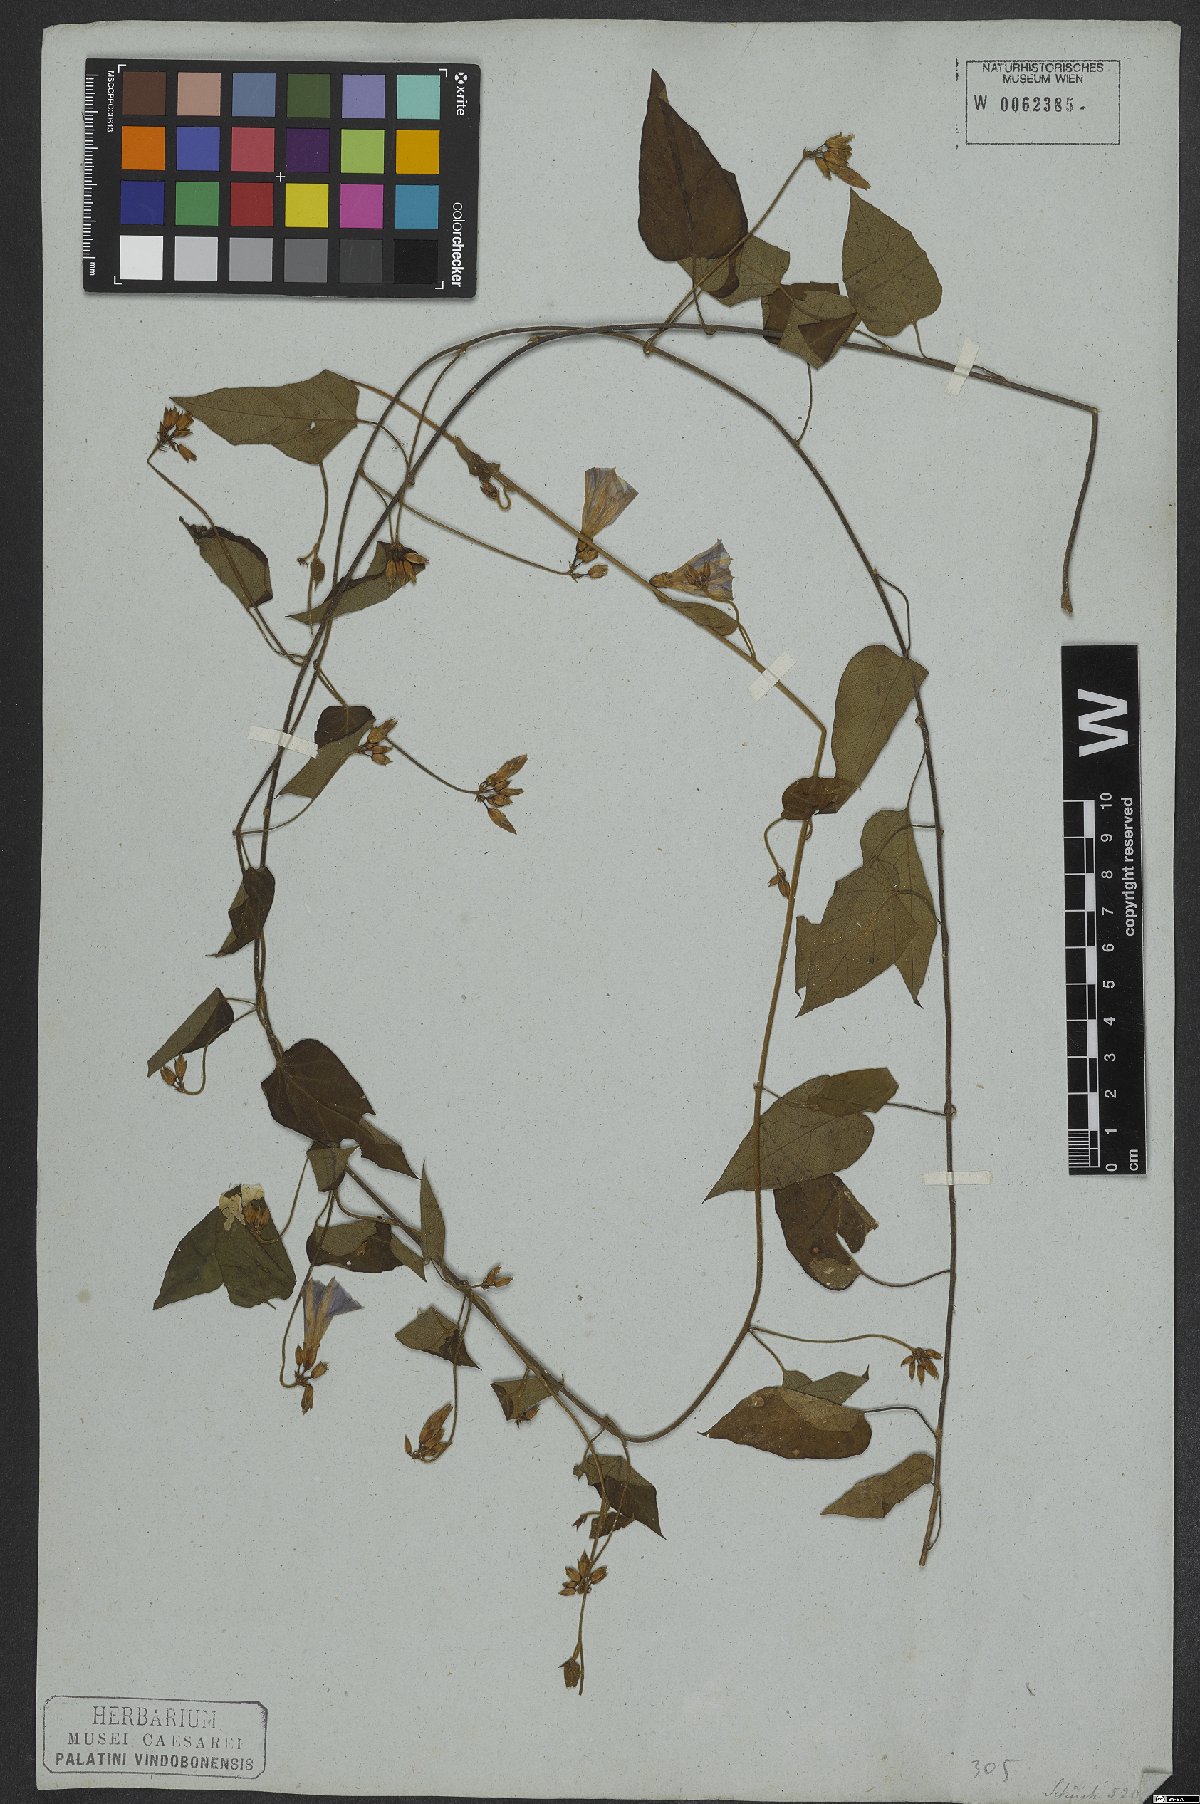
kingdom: Plantae
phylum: Tracheophyta
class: Magnoliopsida
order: Solanales
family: Convolvulaceae
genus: Jacquemontia
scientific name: Jacquemontia martii
